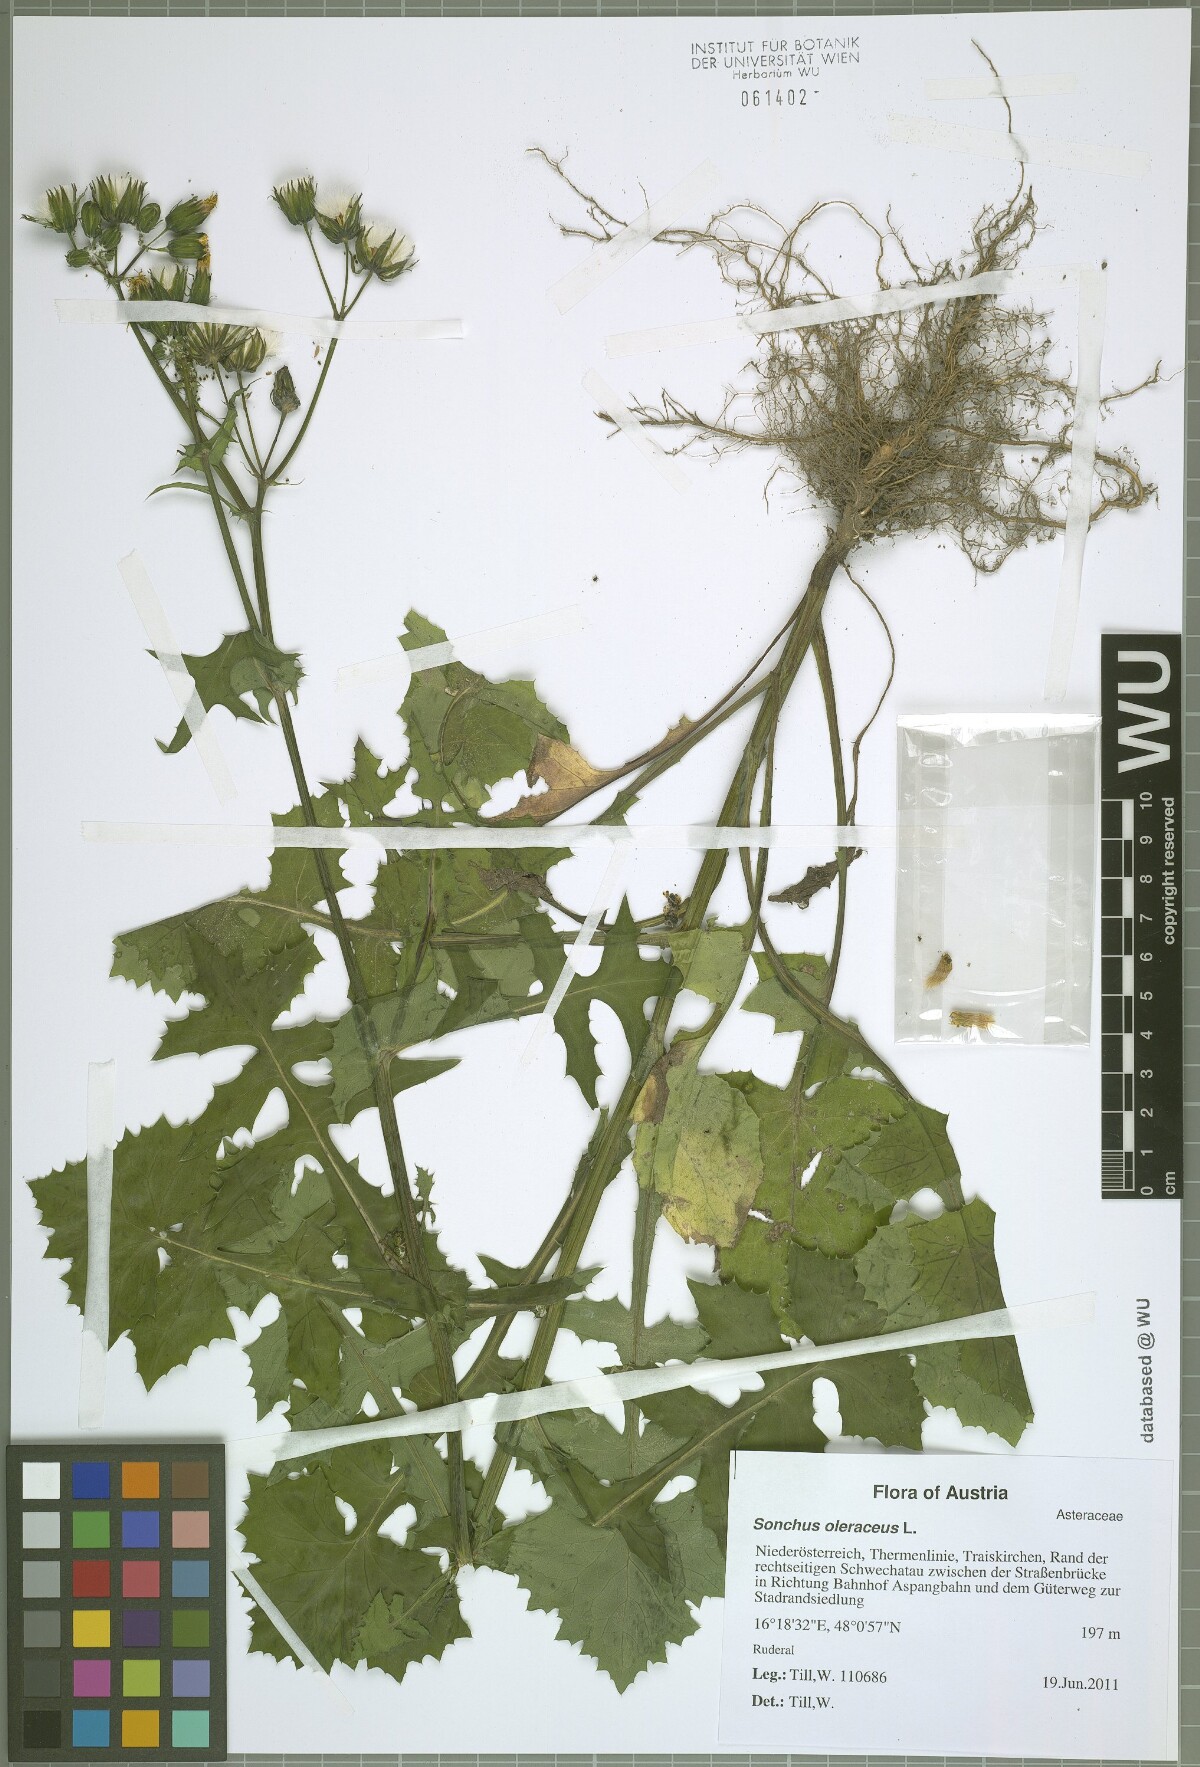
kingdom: Plantae
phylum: Tracheophyta
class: Magnoliopsida
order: Asterales
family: Asteraceae
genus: Sonchus
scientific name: Sonchus oleraceus
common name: Common sowthistle
